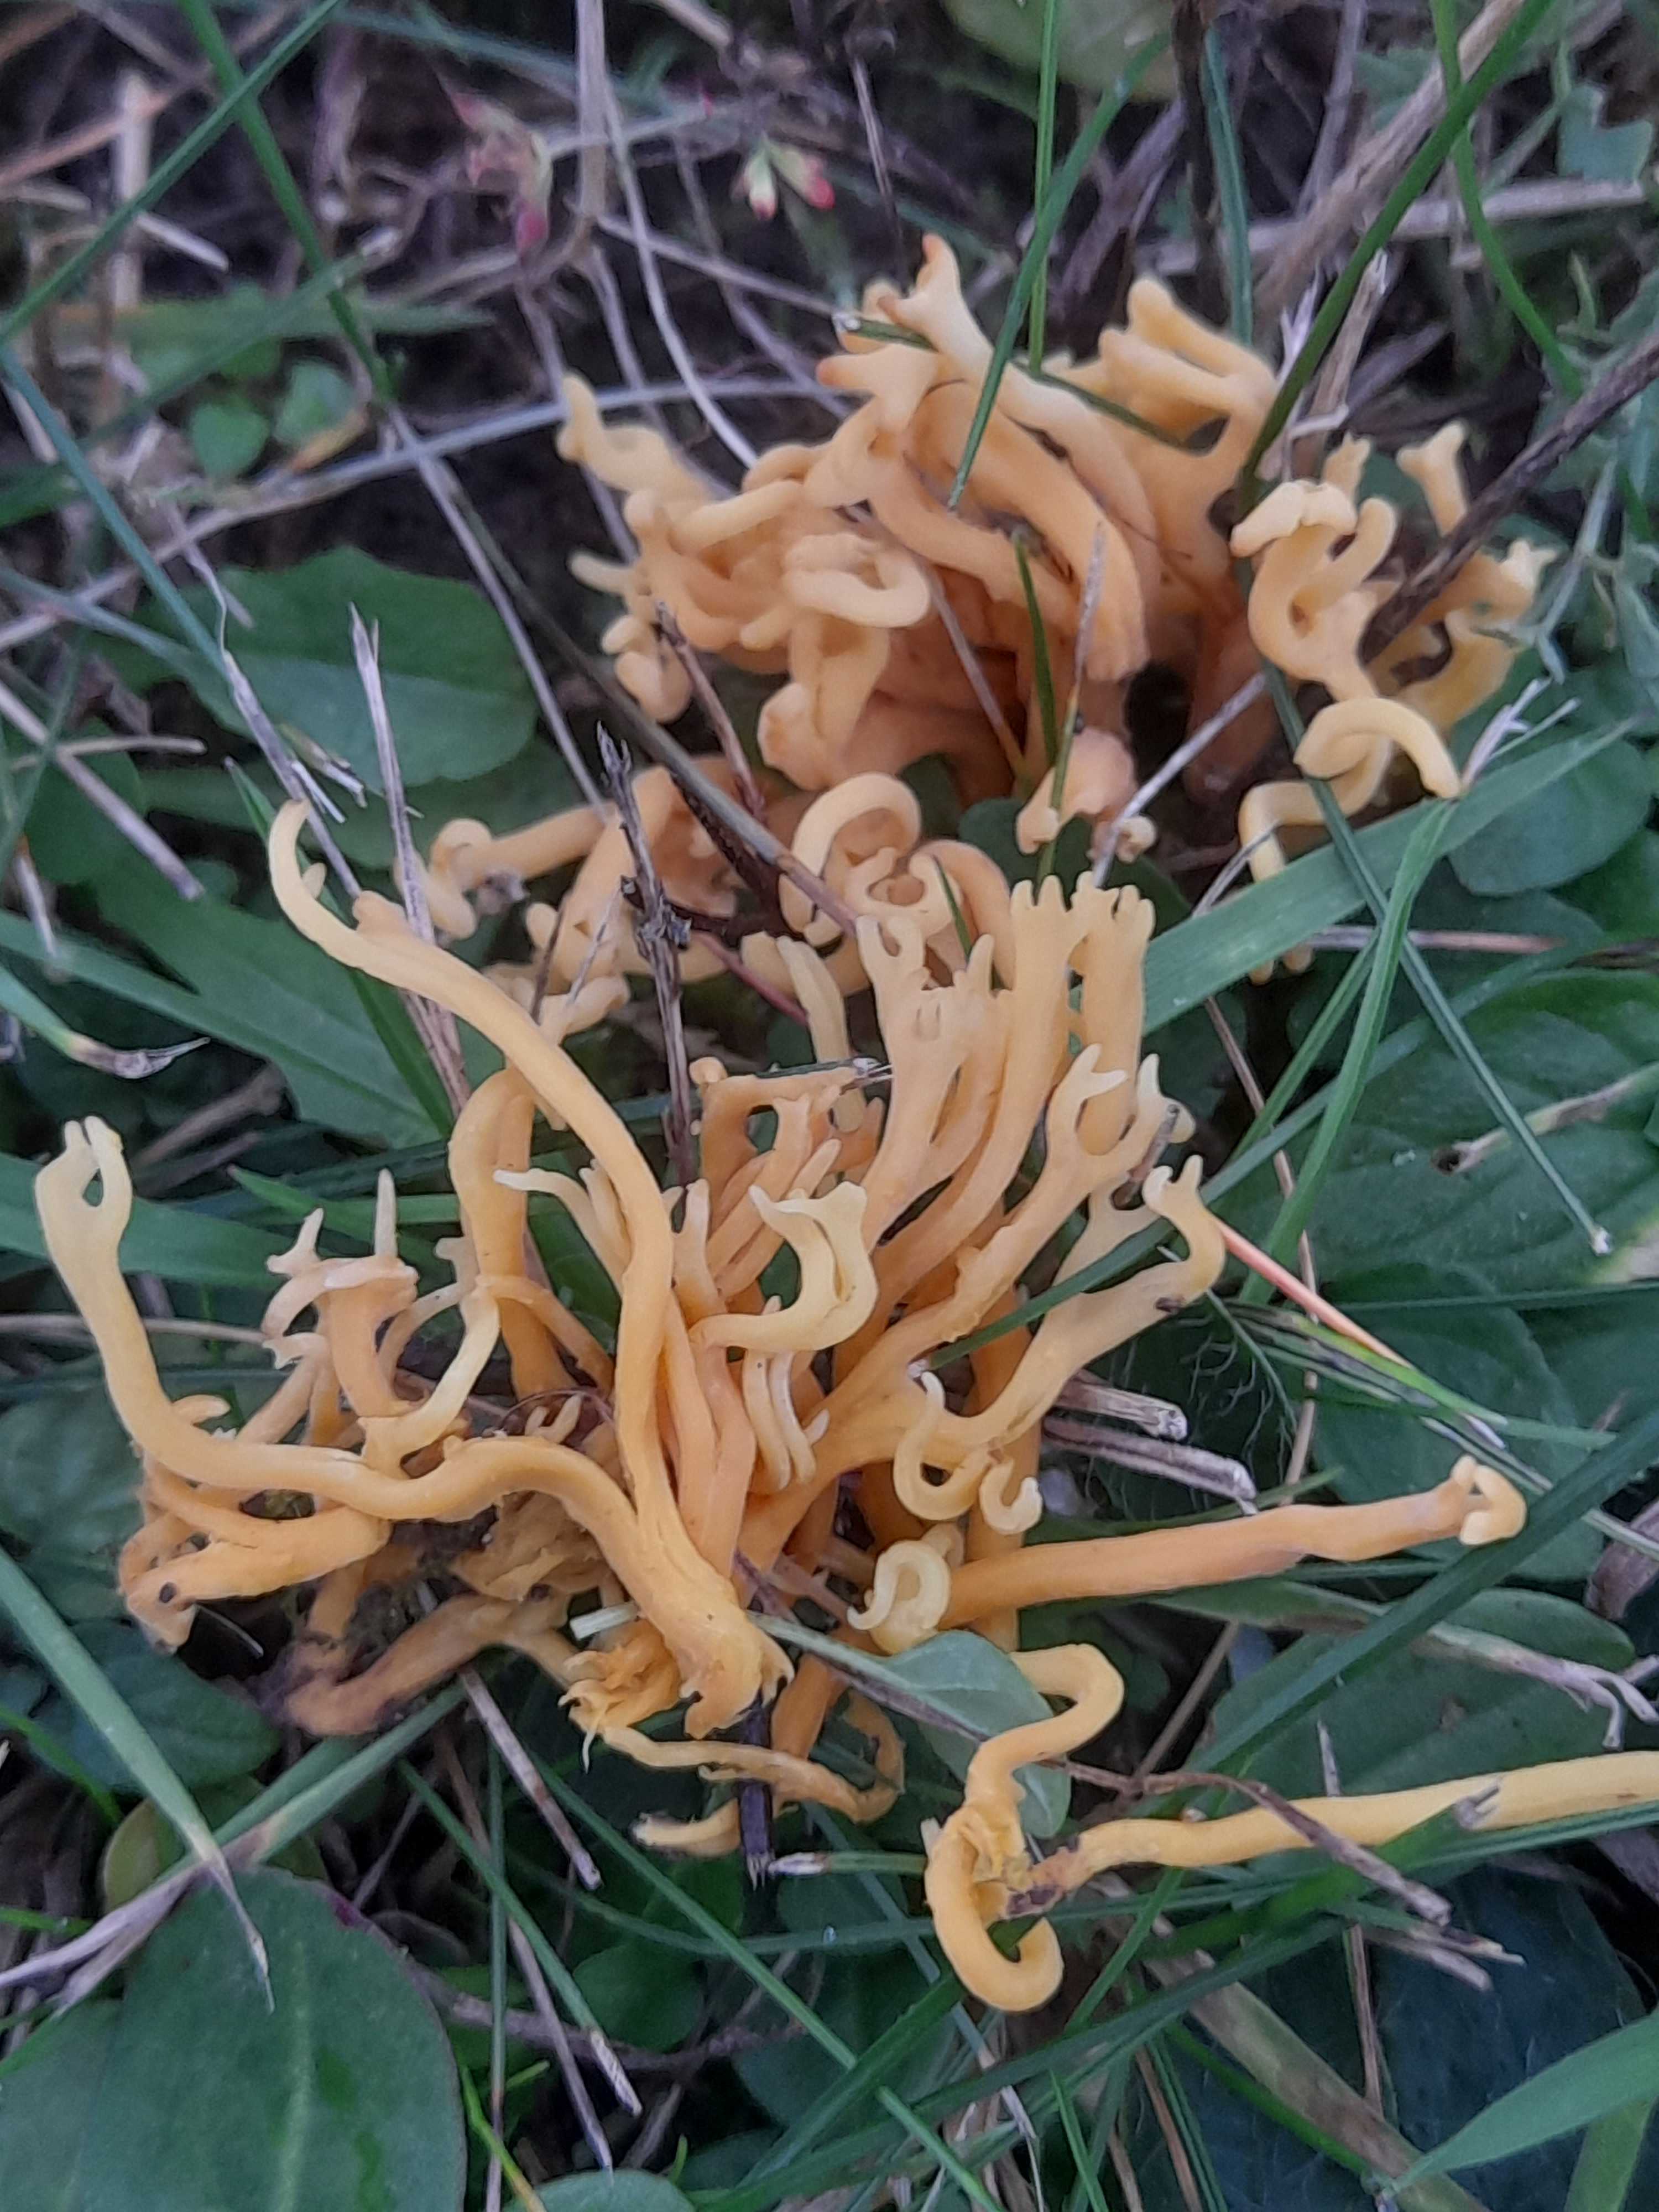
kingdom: Fungi
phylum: Basidiomycota
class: Agaricomycetes
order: Agaricales
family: Clavariaceae
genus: Clavulinopsis
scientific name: Clavulinopsis corniculata
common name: eng-køllesvamp
